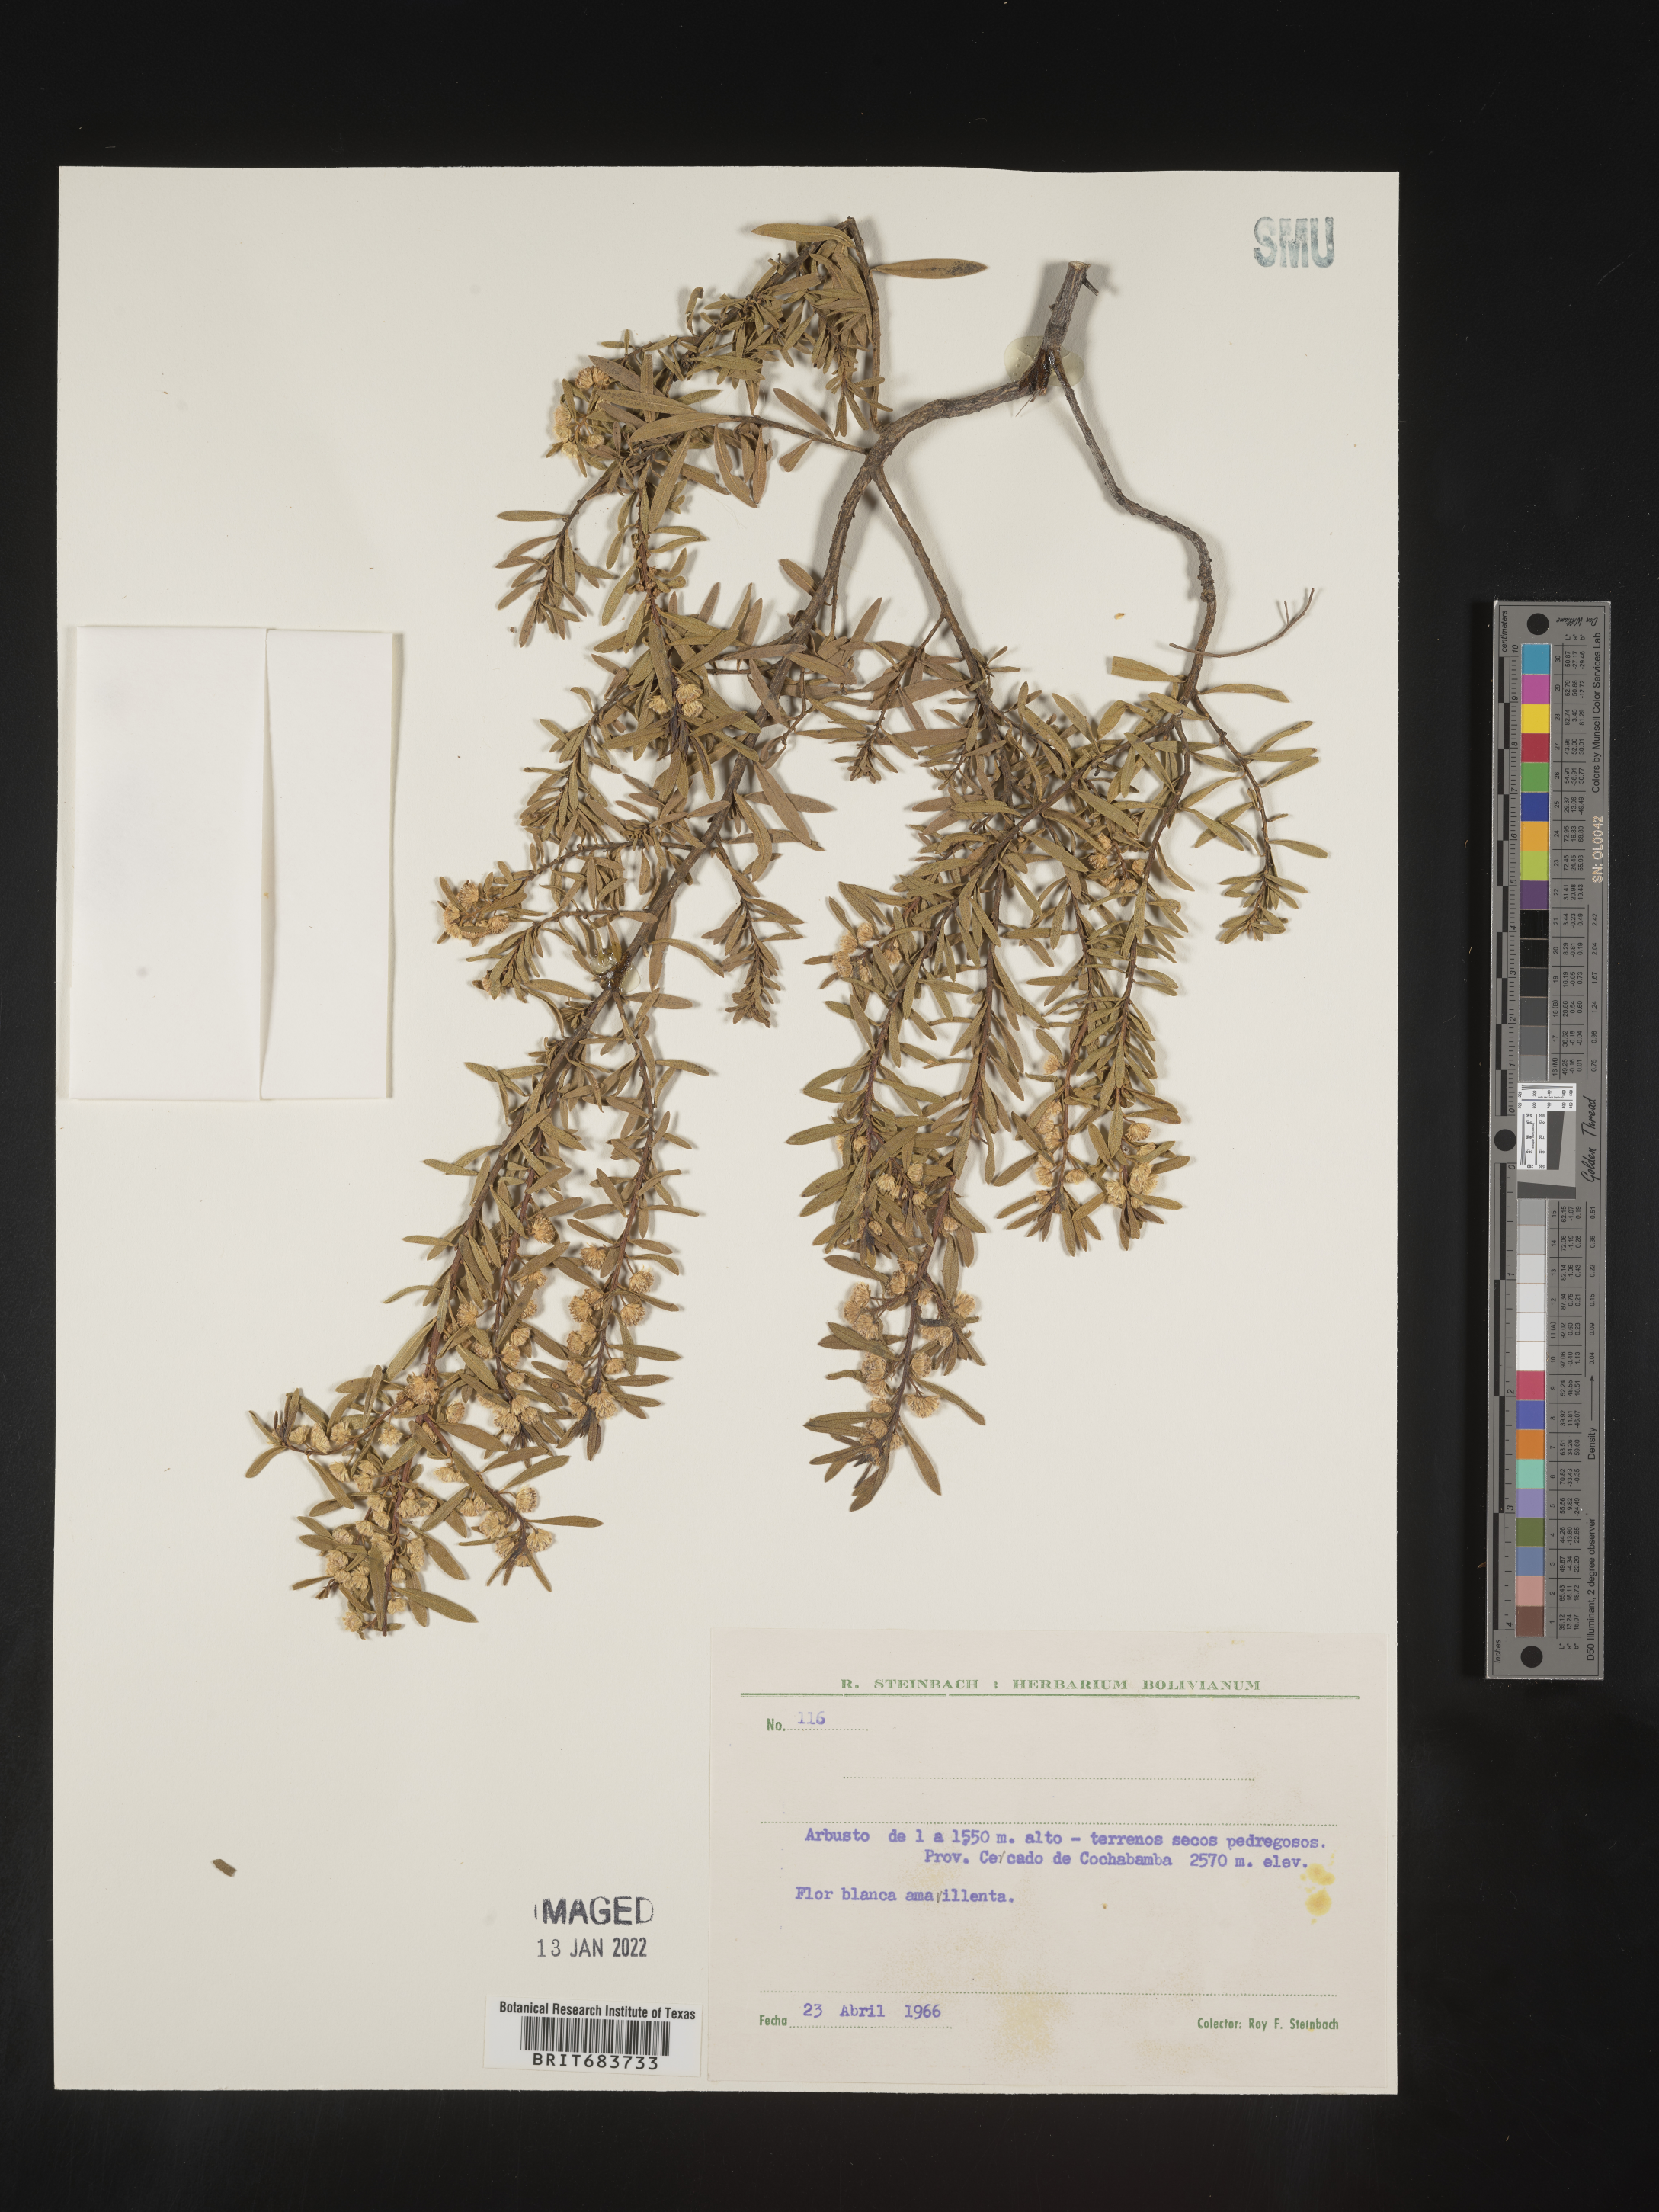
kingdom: Plantae
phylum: Tracheophyta
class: Magnoliopsida
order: Asterales
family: Asteraceae
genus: Baccharis
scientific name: Baccharis
